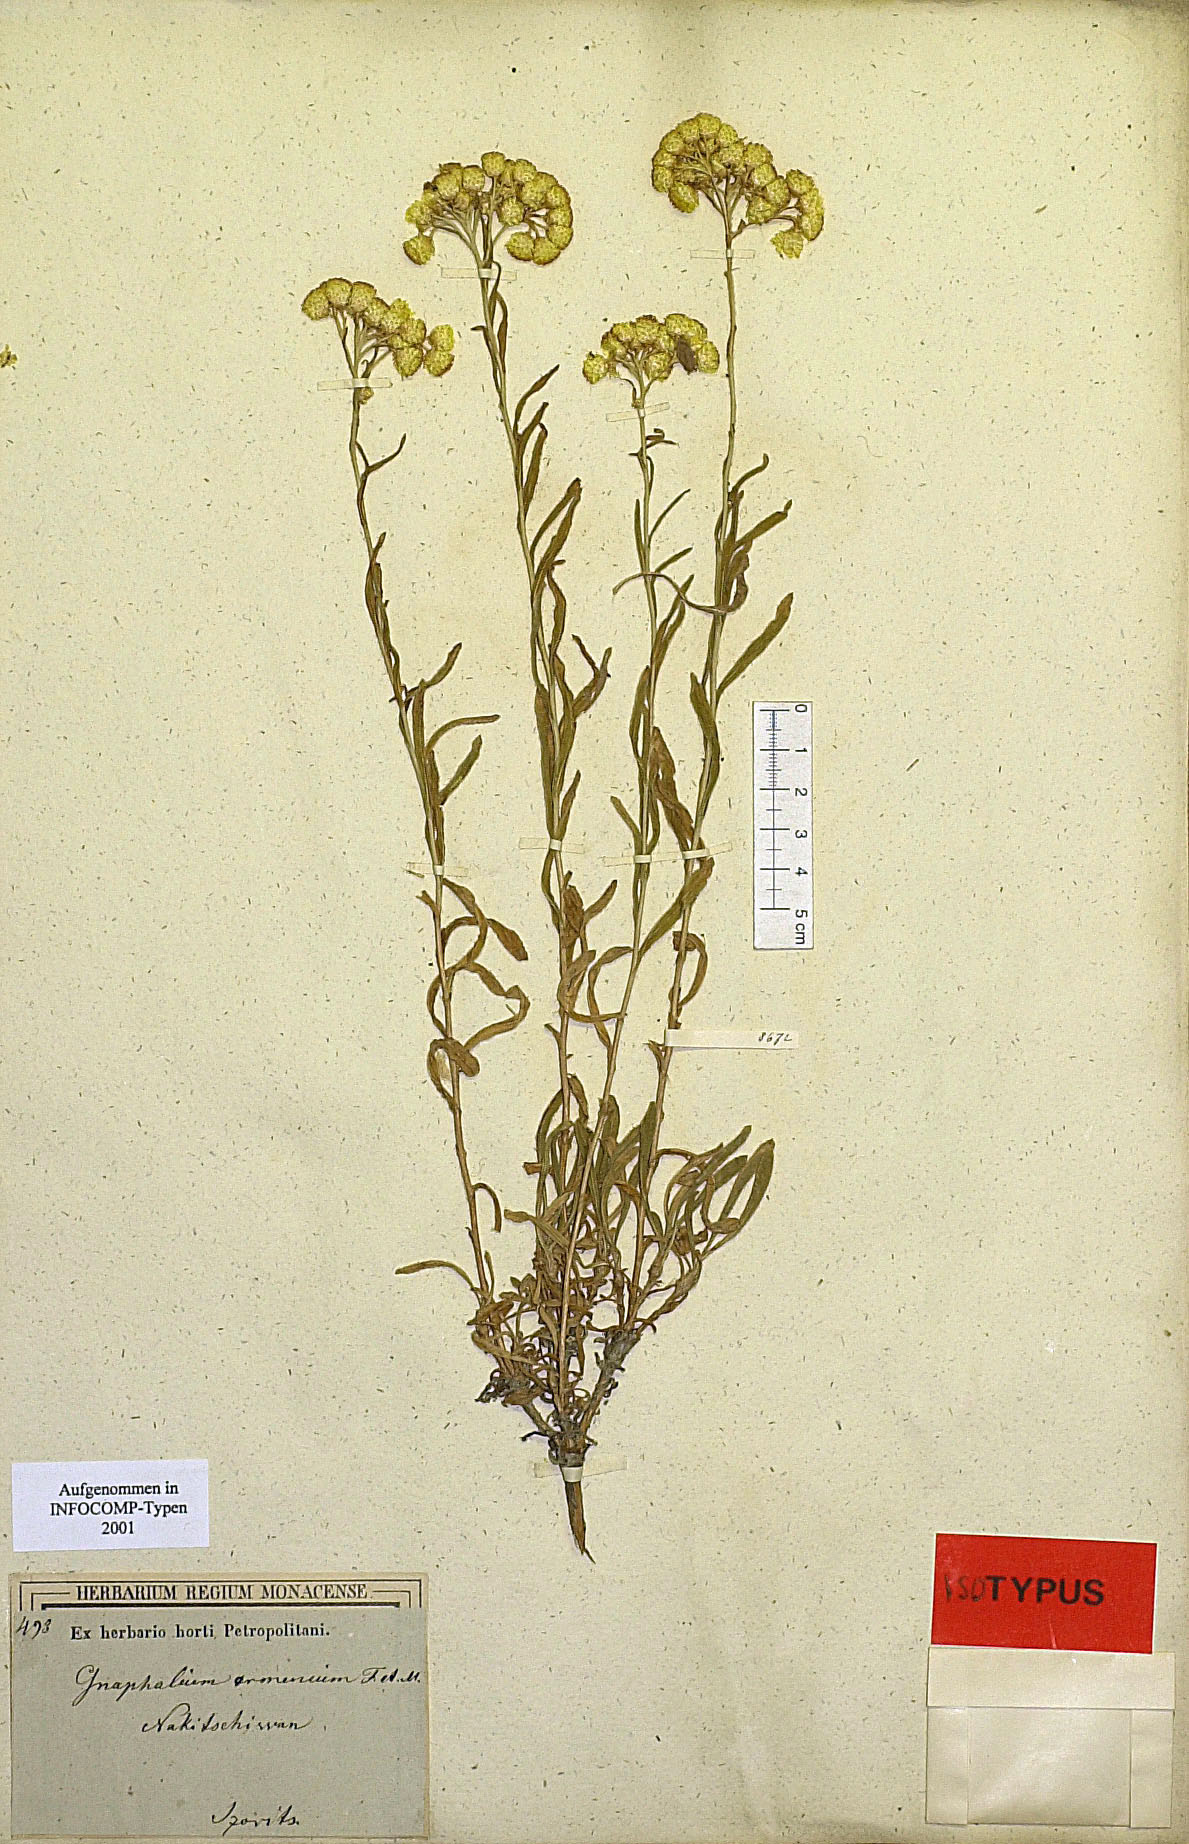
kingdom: Plantae
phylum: Tracheophyta
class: Magnoliopsida
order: Asterales
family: Asteraceae
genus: Helichrysum
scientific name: Helichrysum armenium
